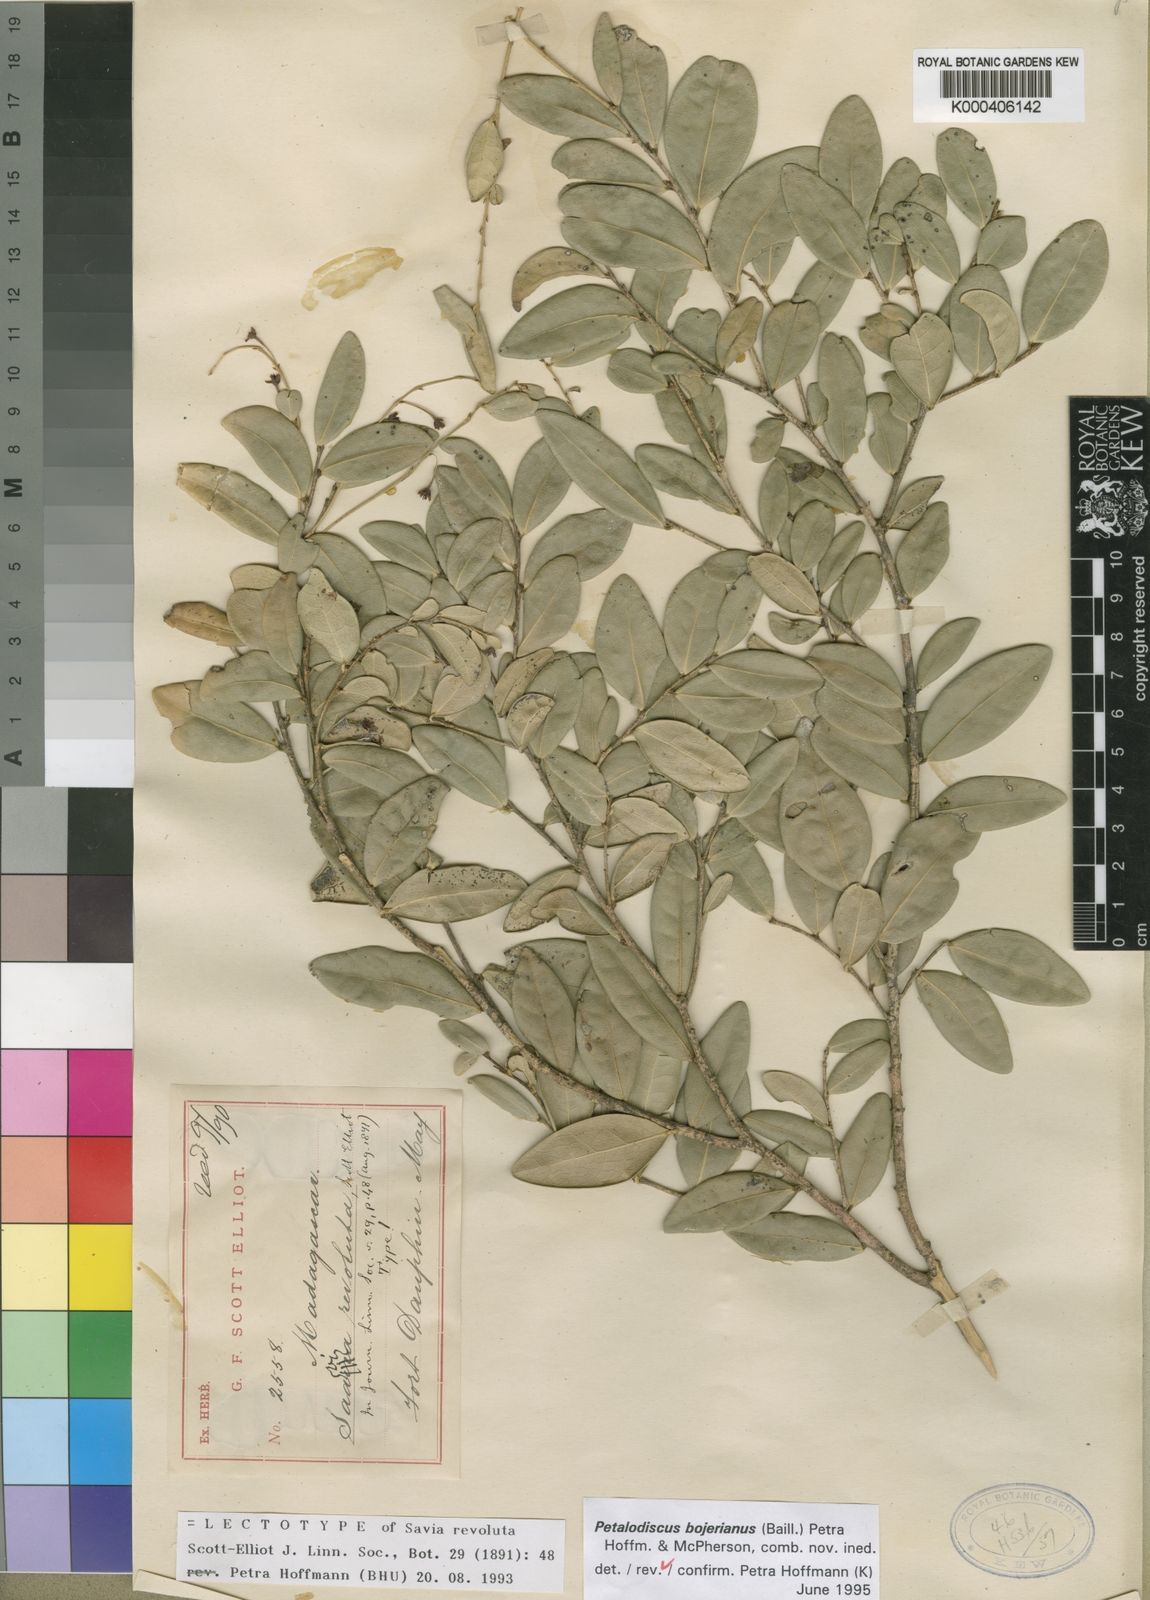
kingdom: Plantae
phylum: Tracheophyta
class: Magnoliopsida
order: Malpighiales
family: Phyllanthaceae
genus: Wielandia
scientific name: Wielandia
